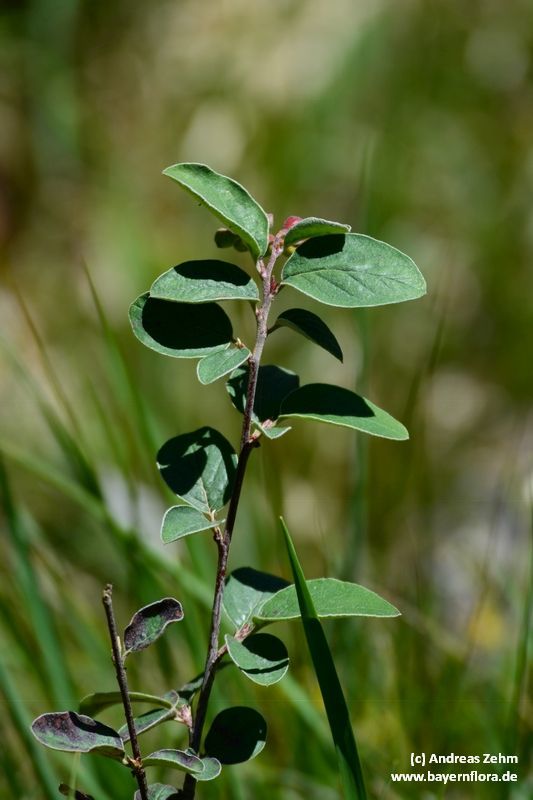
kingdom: Plantae
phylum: Tracheophyta
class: Magnoliopsida
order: Rosales
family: Rosaceae
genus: Cotoneaster
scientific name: Cotoneaster tomentosus
